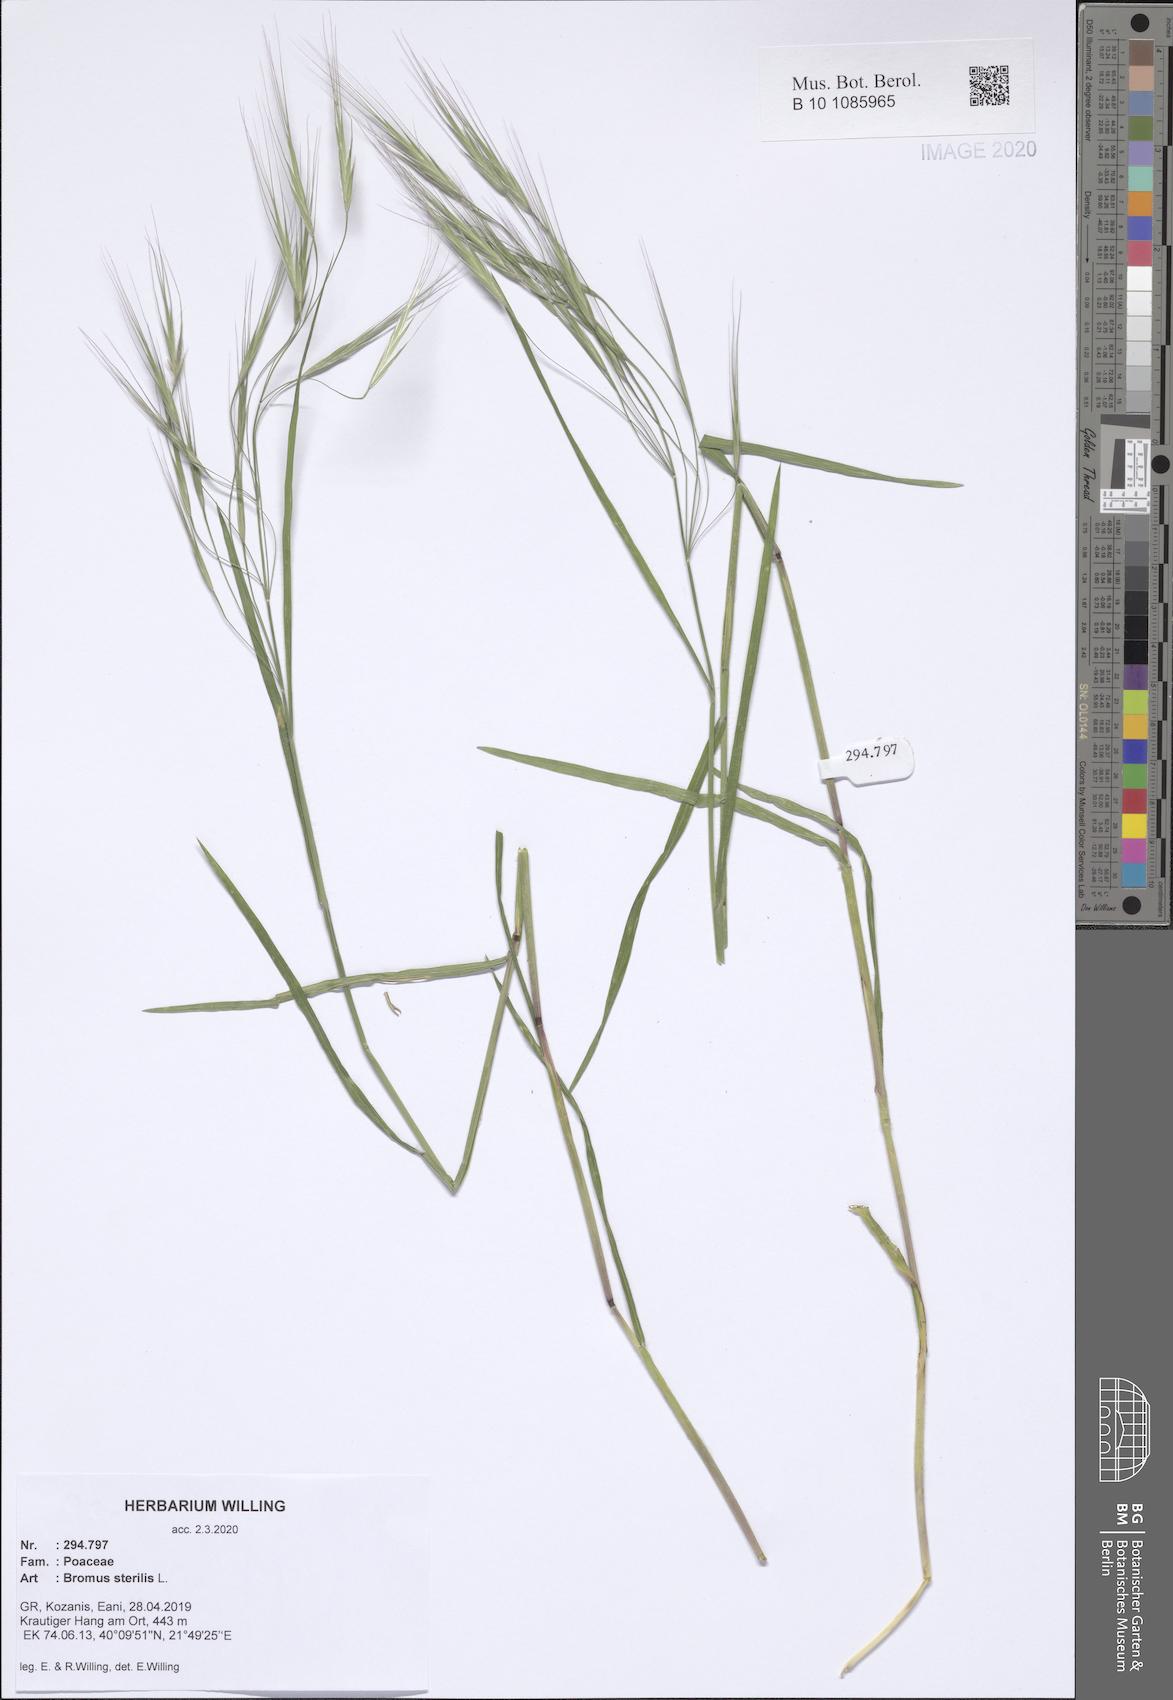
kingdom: Plantae
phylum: Tracheophyta
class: Liliopsida
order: Poales
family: Poaceae
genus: Bromus
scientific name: Bromus sterilis
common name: Poverty brome
